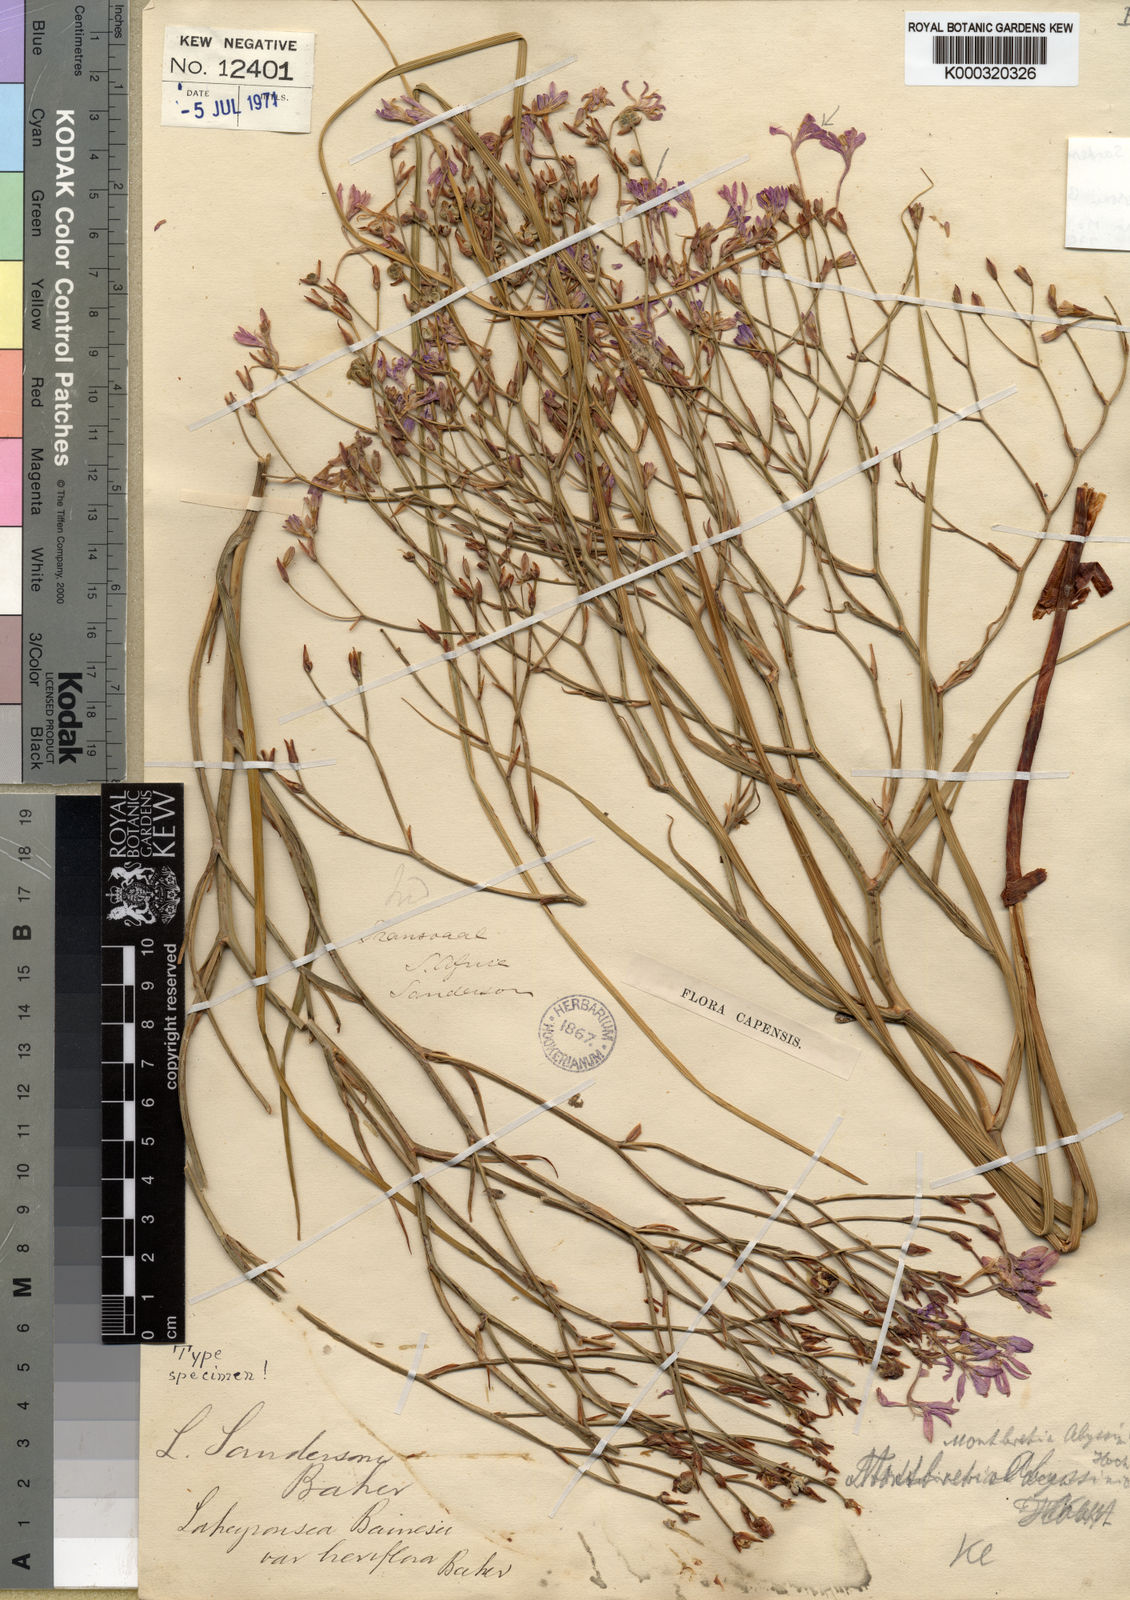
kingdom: Plantae
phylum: Tracheophyta
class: Liliopsida
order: Asparagales
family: Iridaceae
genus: Afrosolen
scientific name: Afrosolen sandersonii
